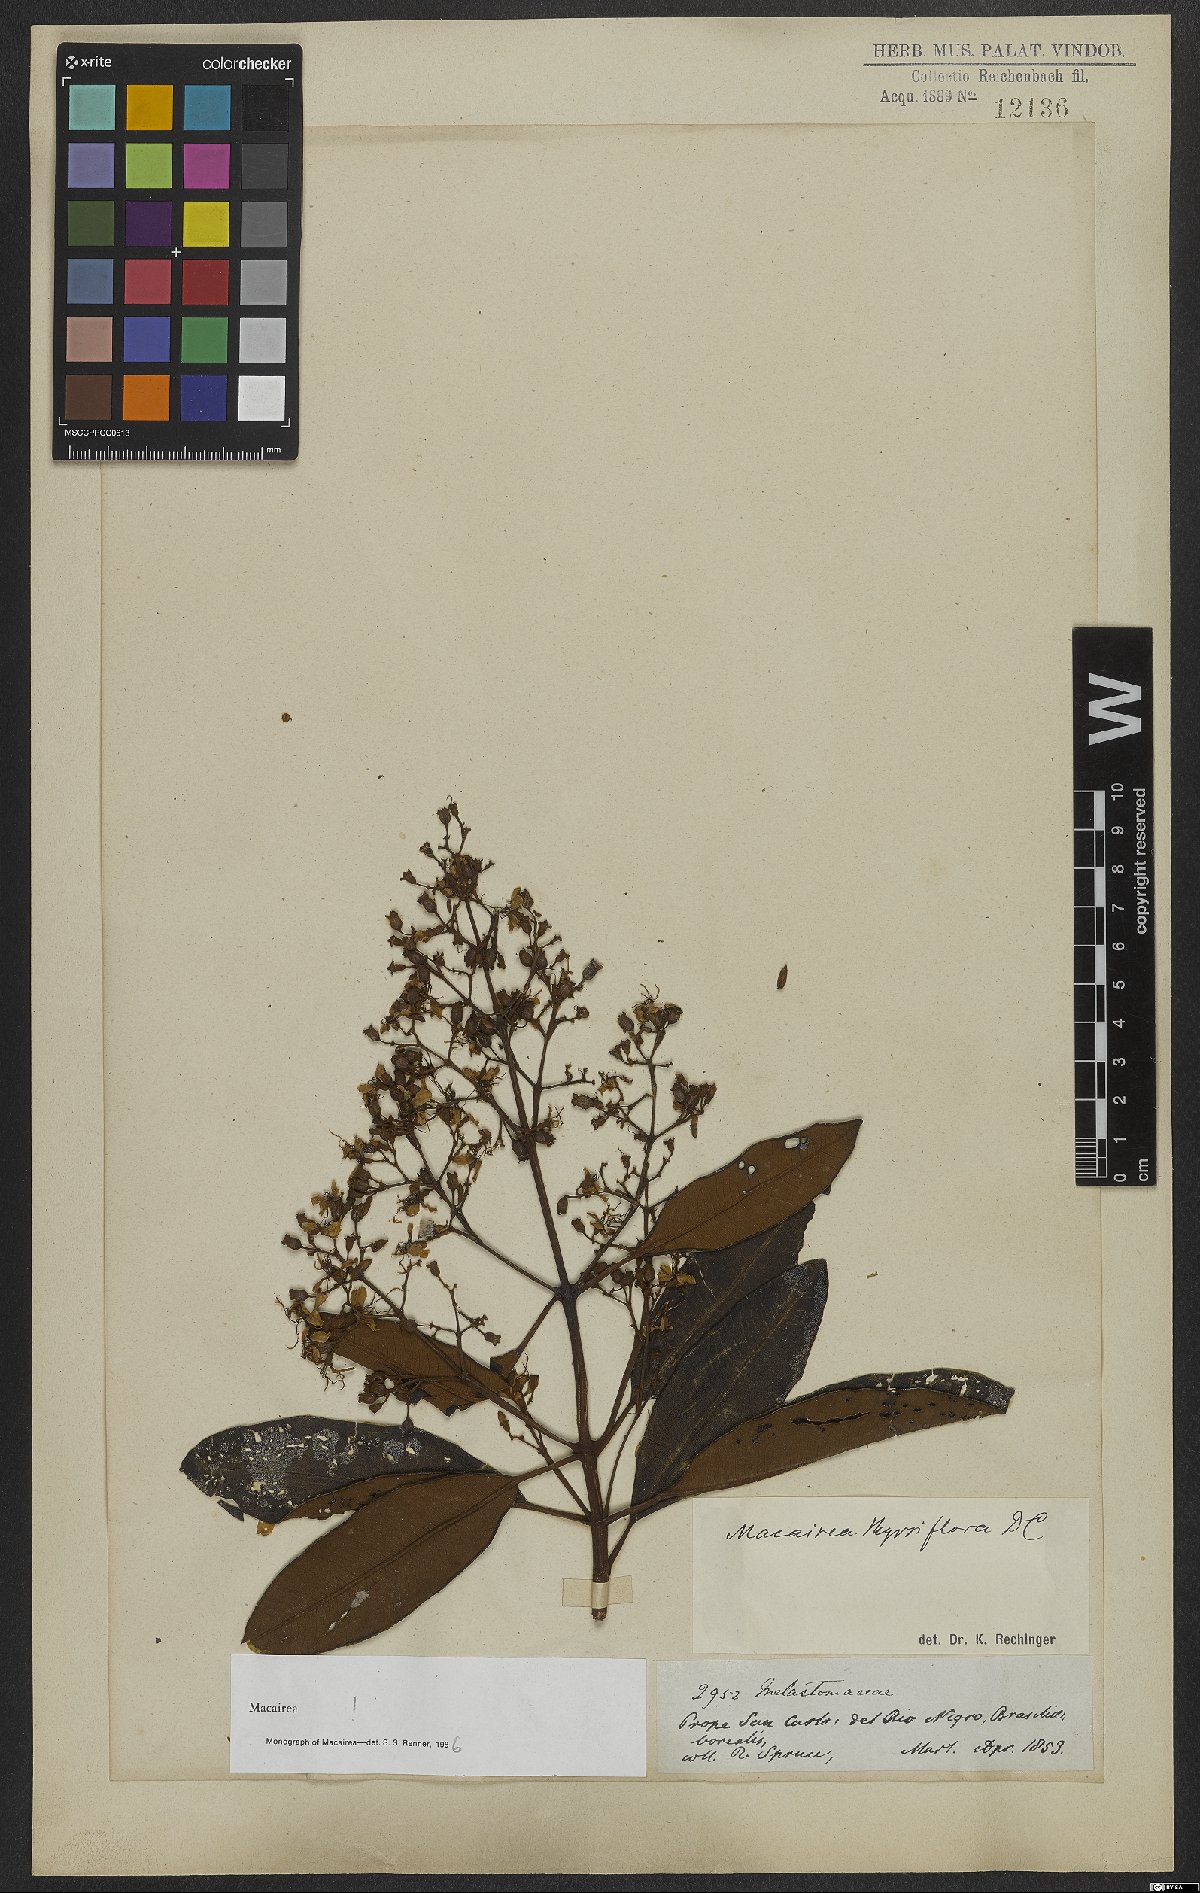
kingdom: Plantae
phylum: Tracheophyta
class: Magnoliopsida
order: Myrtales
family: Melastomataceae
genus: Macairea
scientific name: Macairea thyrsiflora
